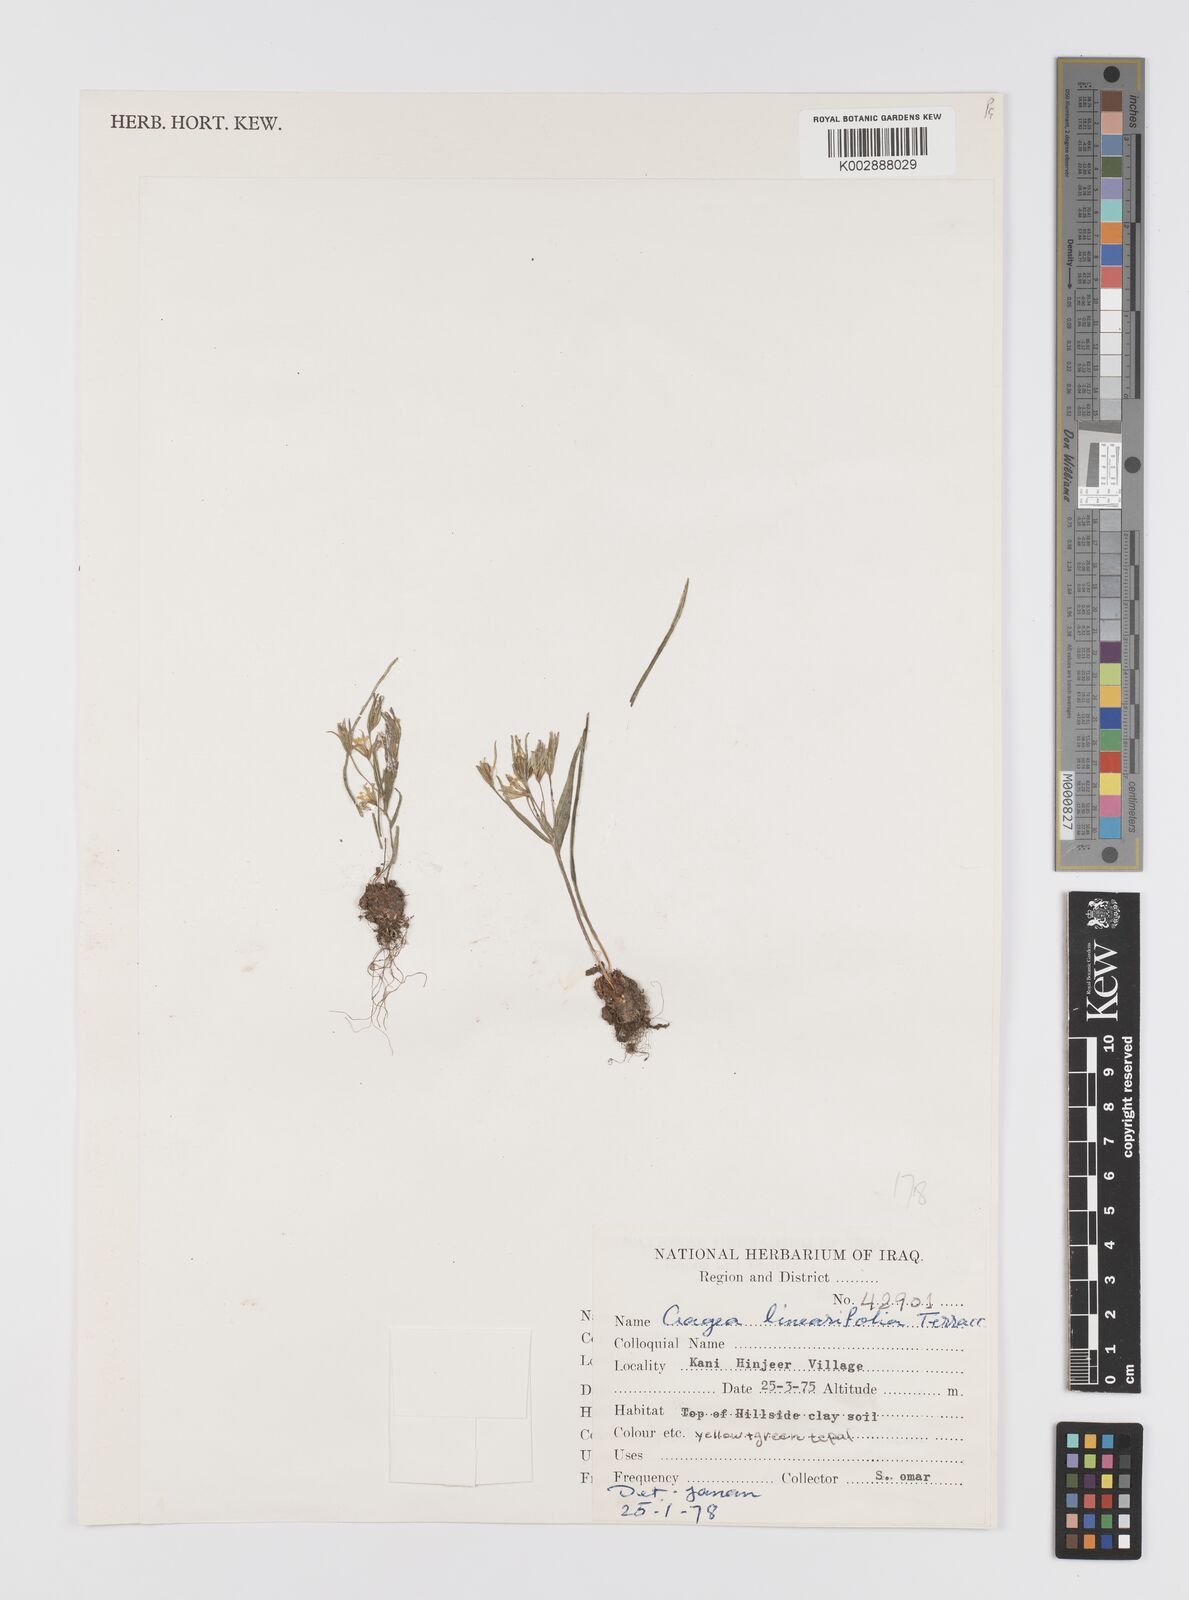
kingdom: Plantae
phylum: Tracheophyta
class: Liliopsida
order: Liliales
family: Liliaceae
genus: Gagea
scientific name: Gagea luteoides
